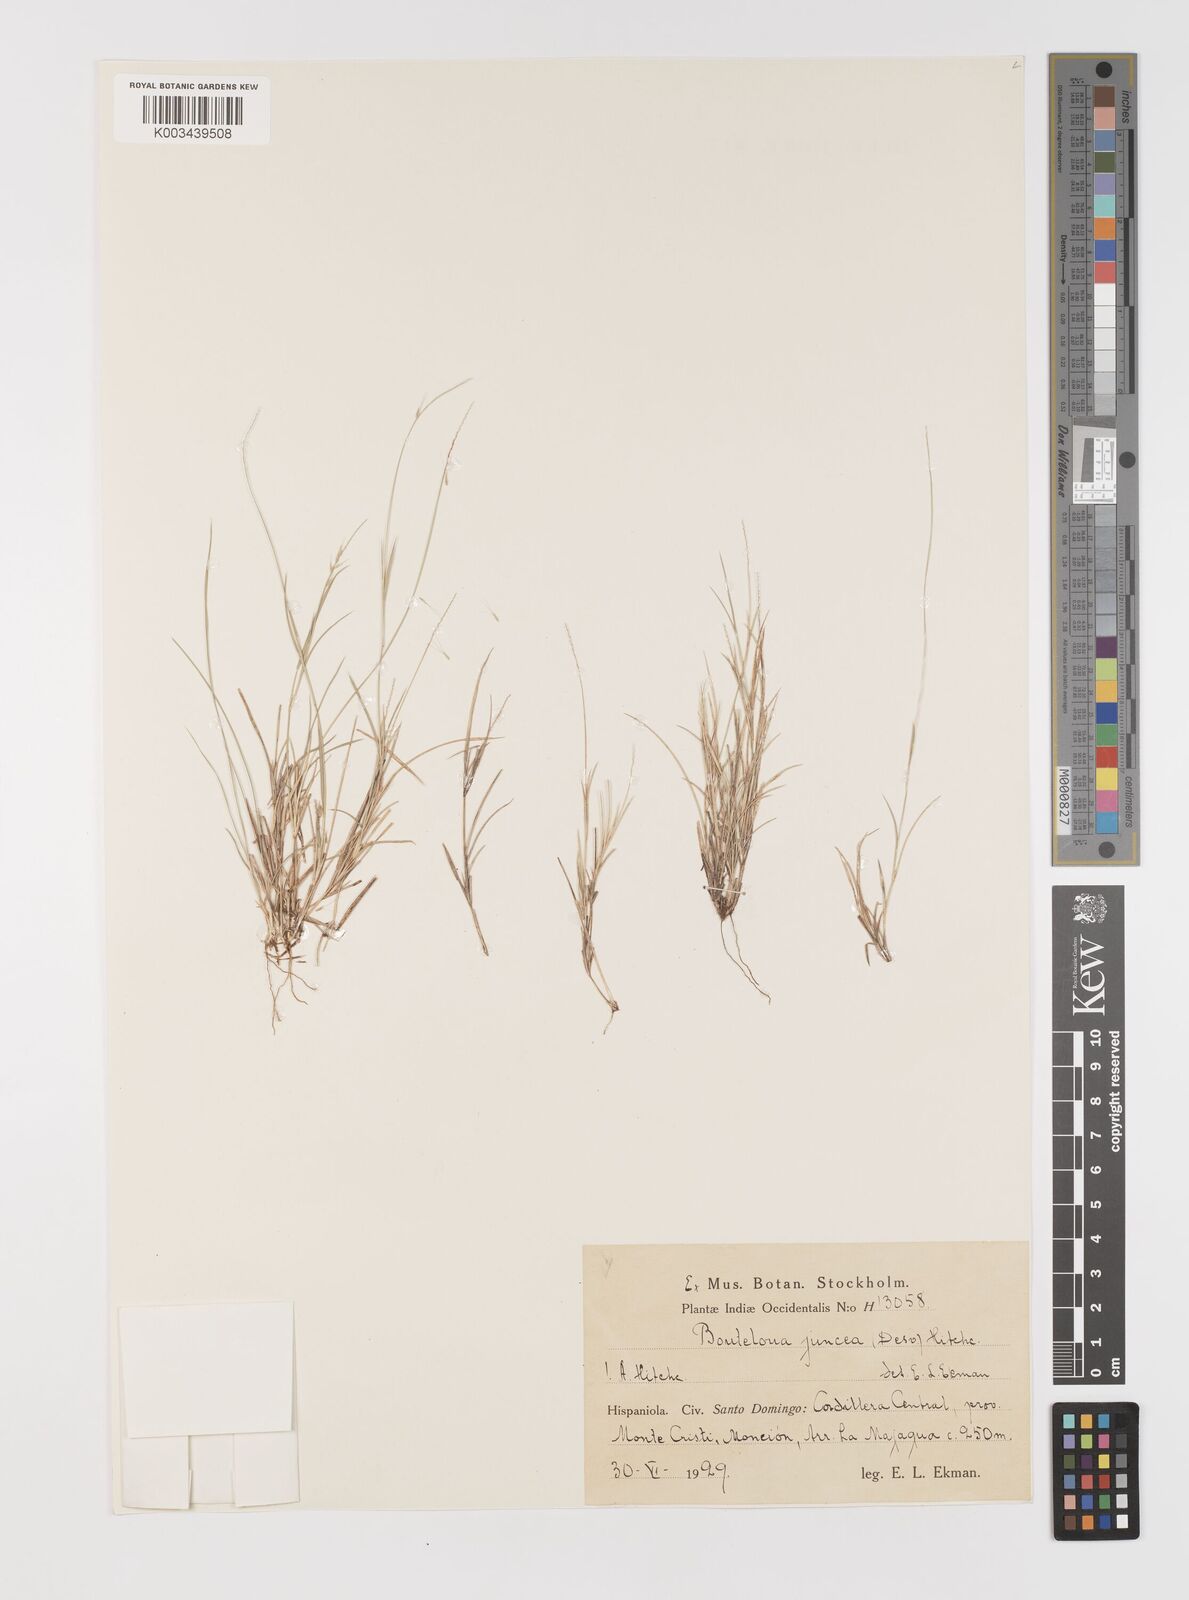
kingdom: Plantae
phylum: Tracheophyta
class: Liliopsida
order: Poales
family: Poaceae
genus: Bouteloua
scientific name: Bouteloua juncea
